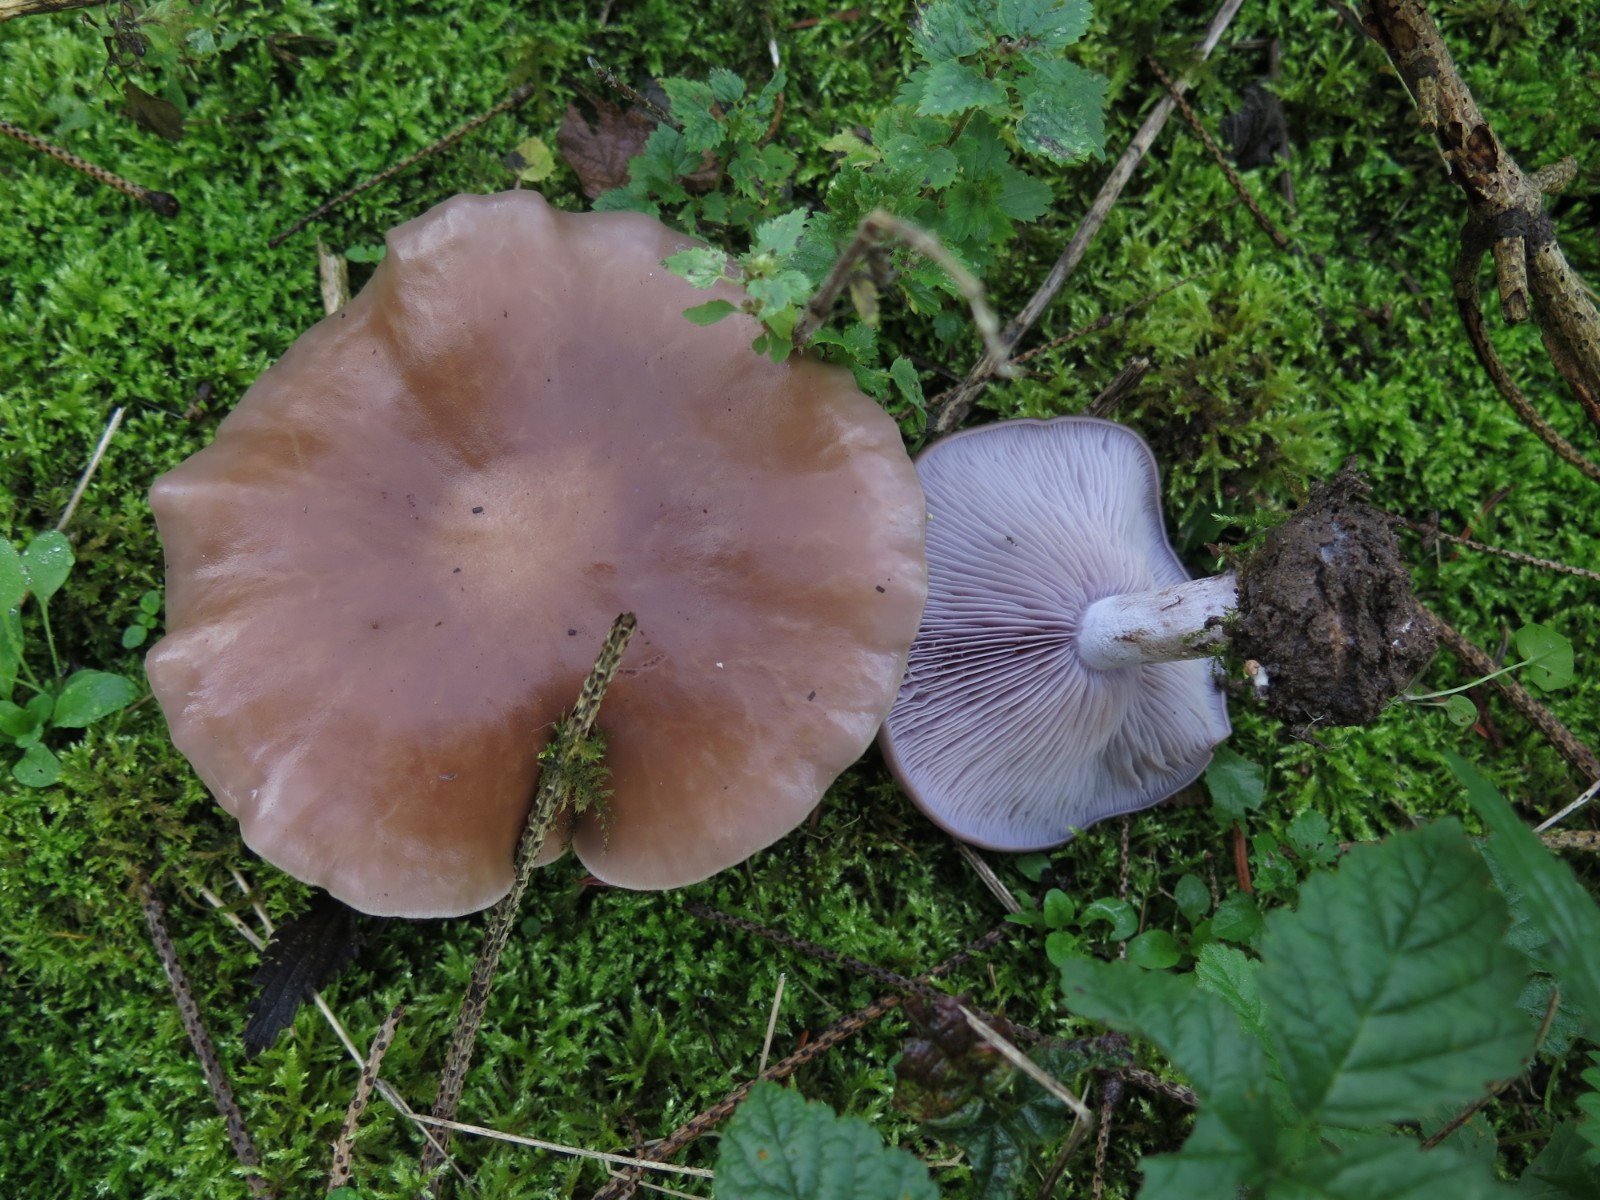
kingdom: Fungi
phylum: Basidiomycota
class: Agaricomycetes
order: Agaricales
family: Tricholomataceae
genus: Lepista
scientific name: Lepista nuda
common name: violet hekseringshat
